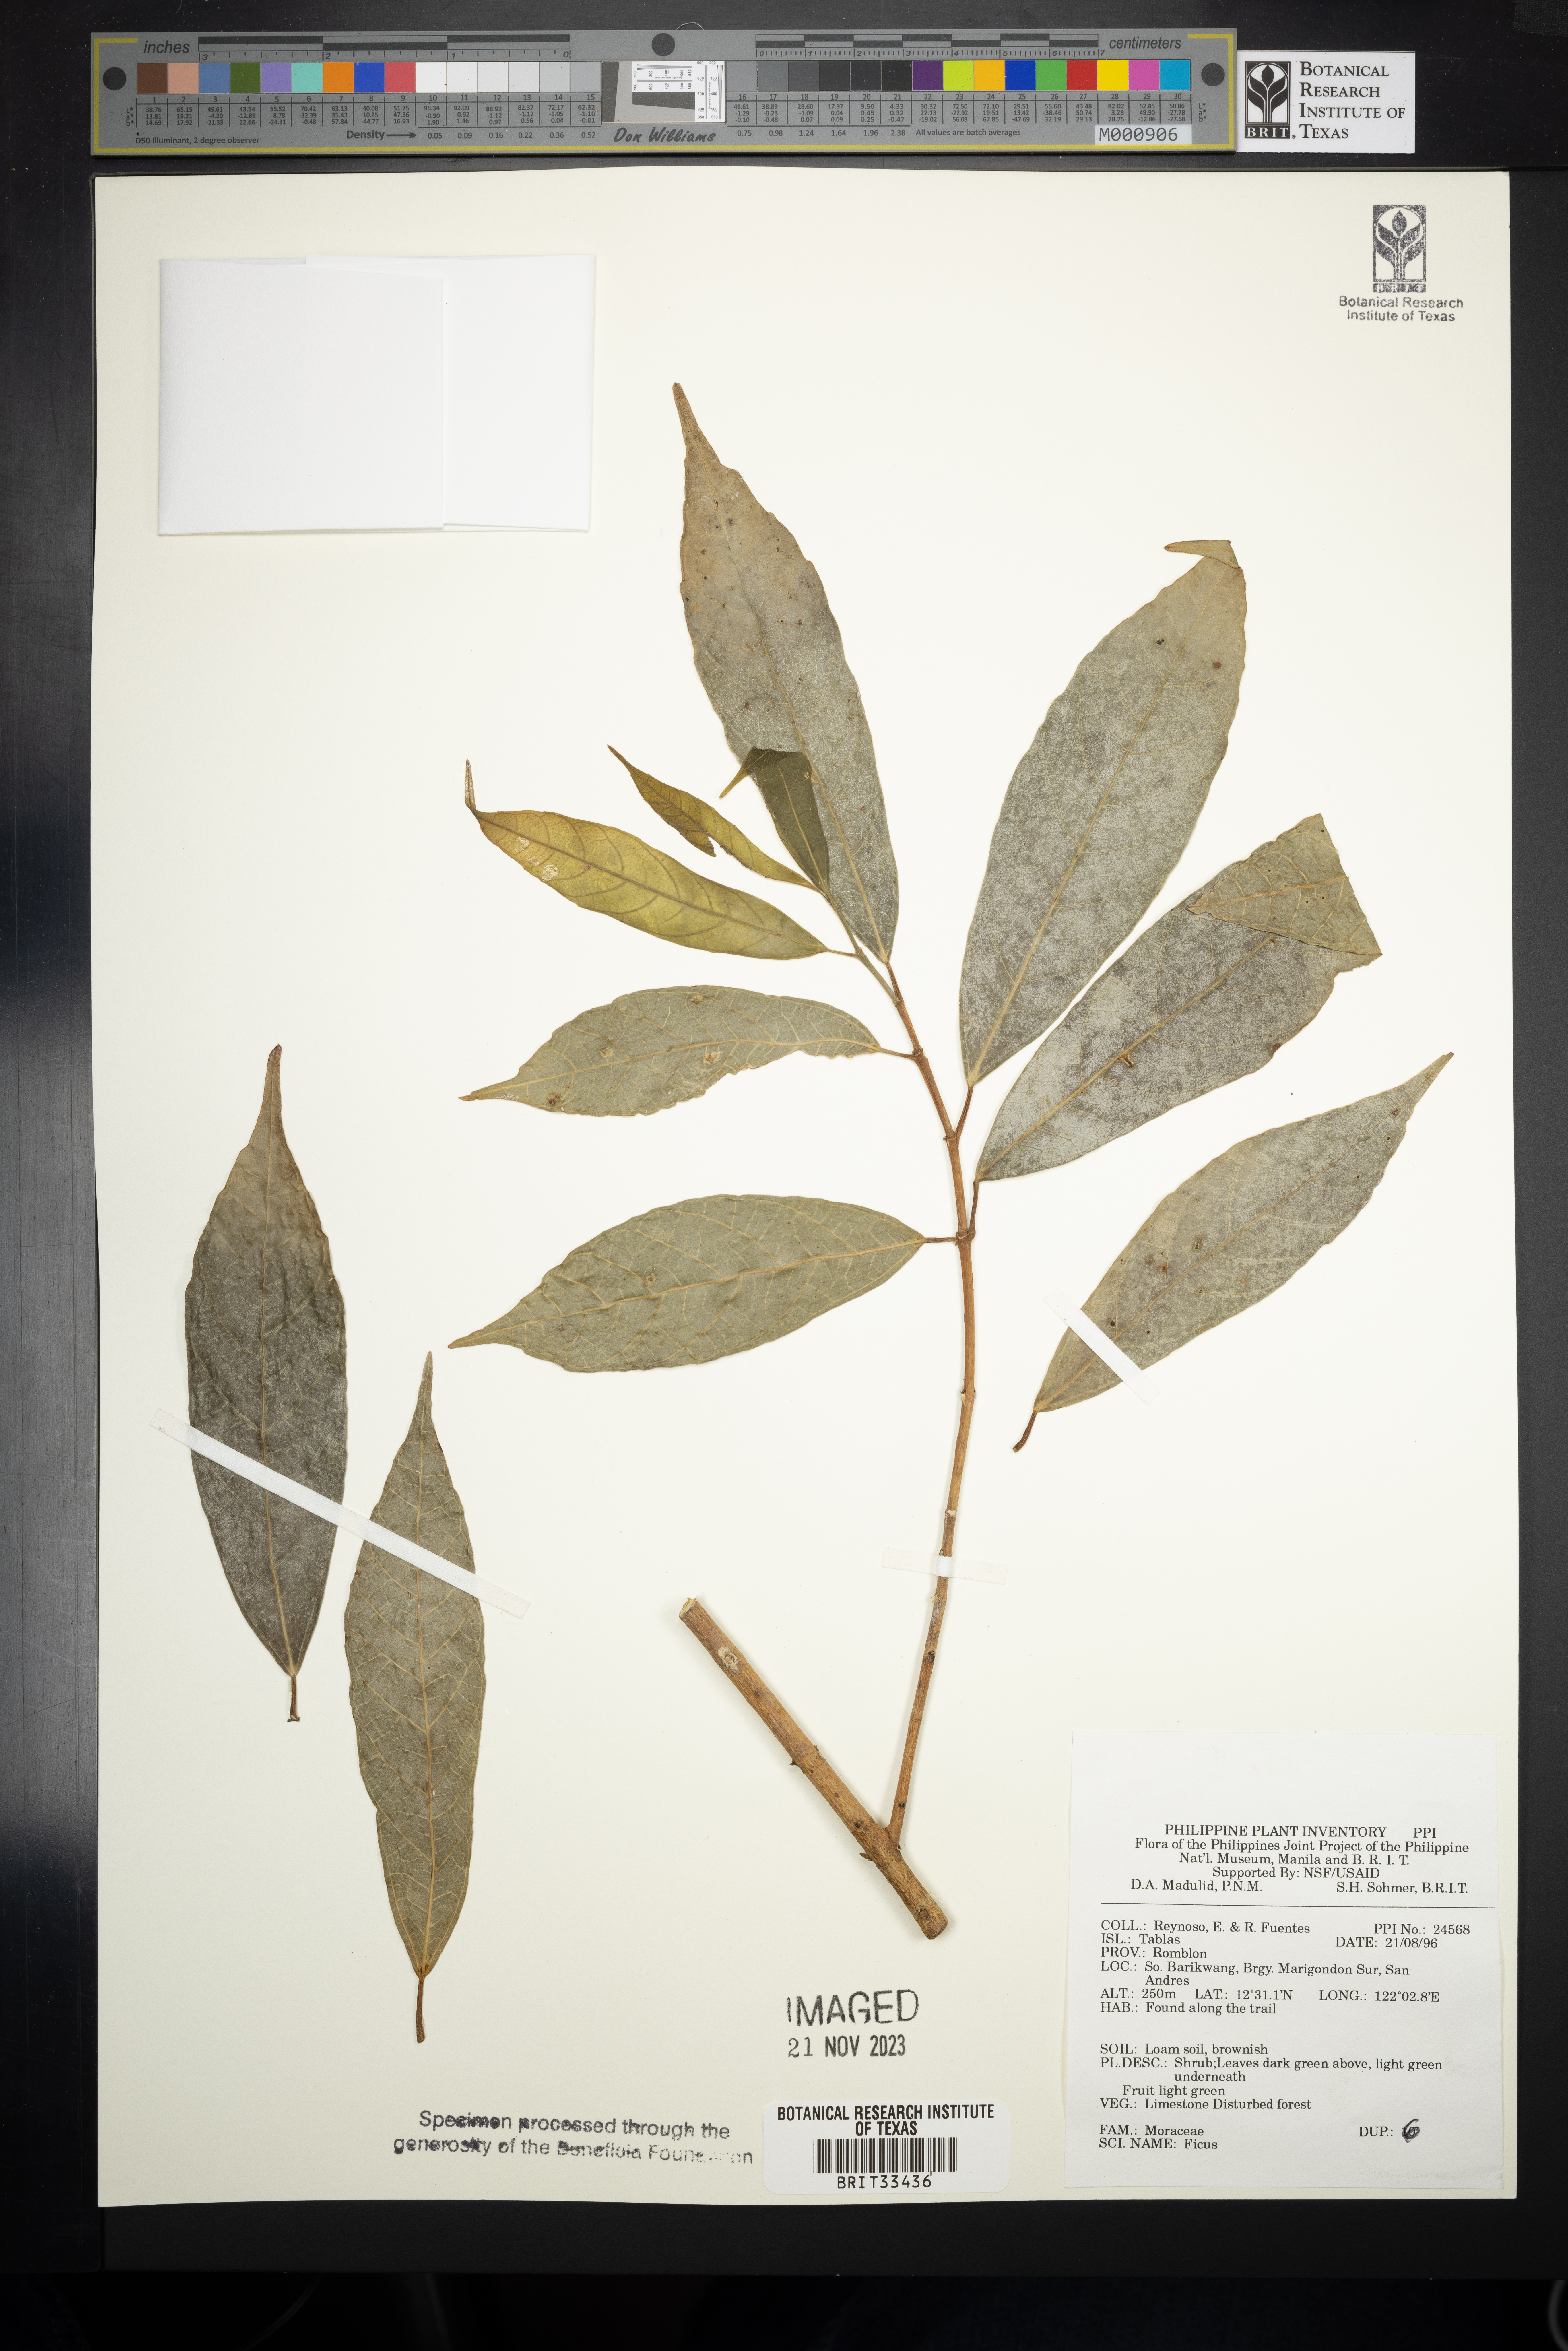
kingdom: Plantae
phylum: Tracheophyta
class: Magnoliopsida
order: Rosales
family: Moraceae
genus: Ficus
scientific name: Ficus
